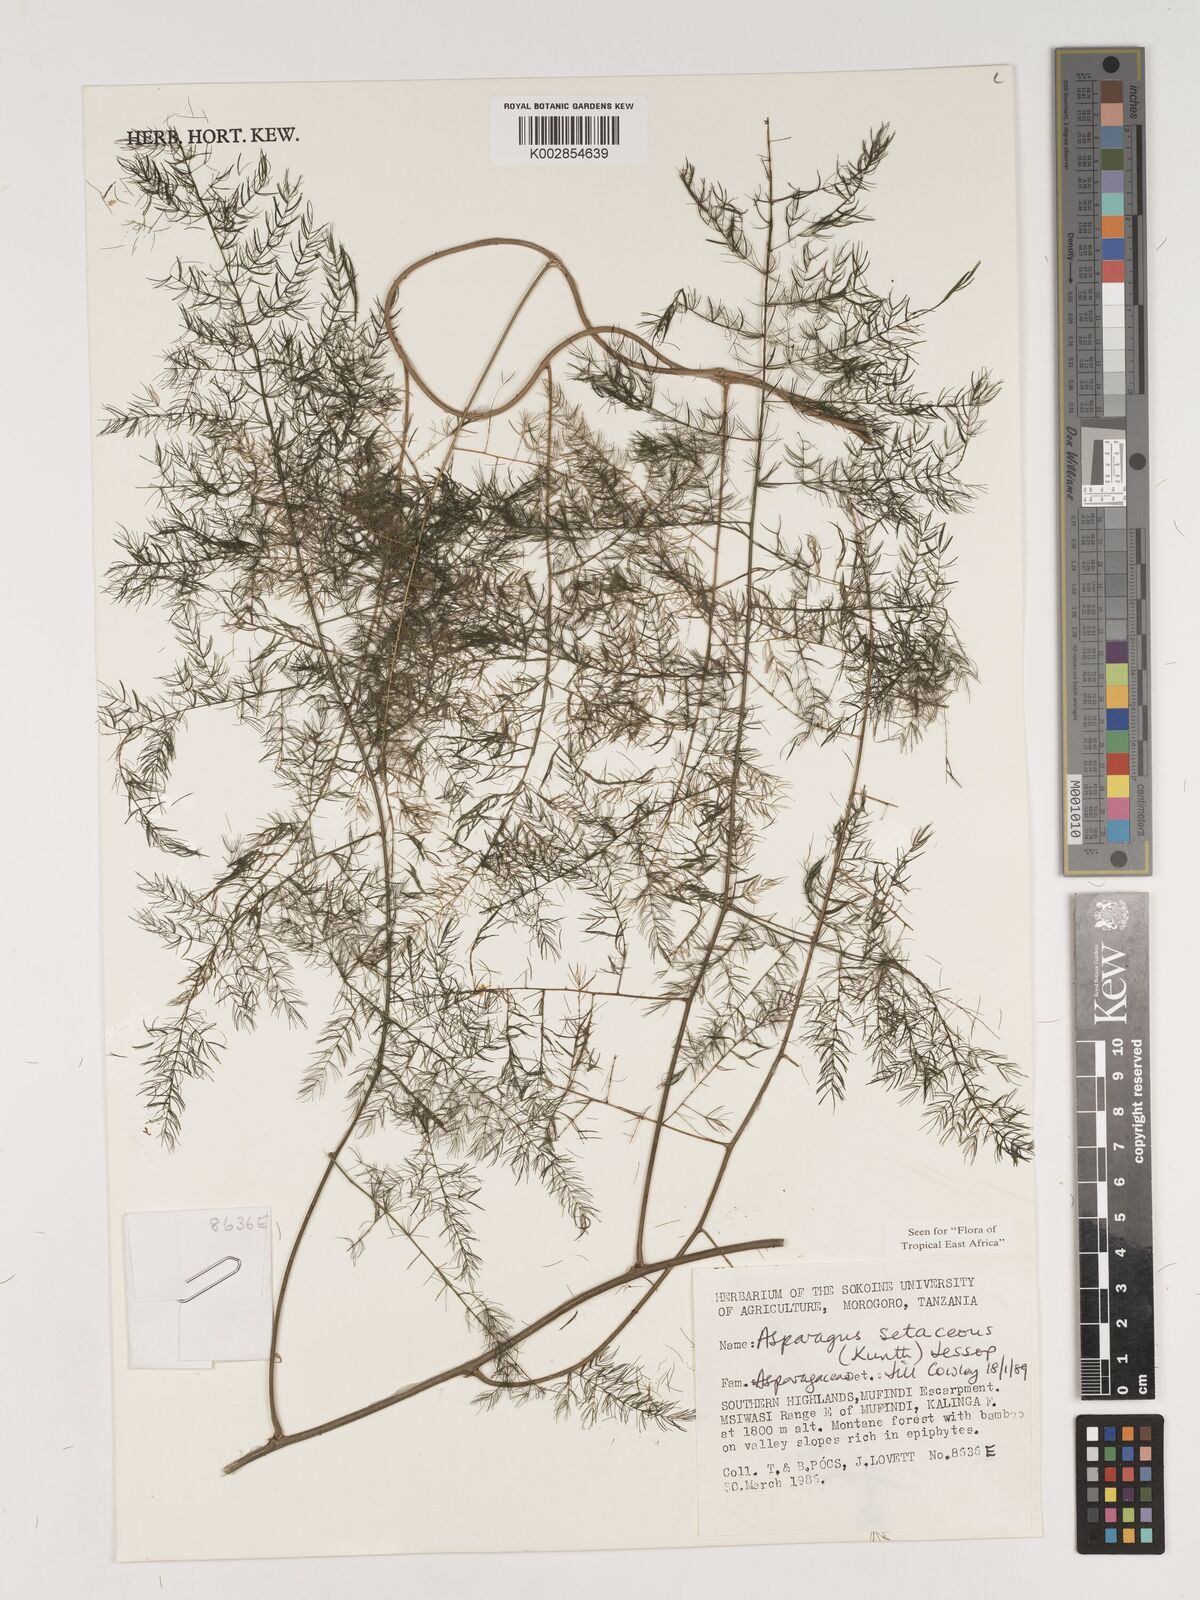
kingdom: Plantae
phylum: Tracheophyta
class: Liliopsida
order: Asparagales
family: Asparagaceae
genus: Asparagus
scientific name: Asparagus setaceus
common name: Common asparagus fern
